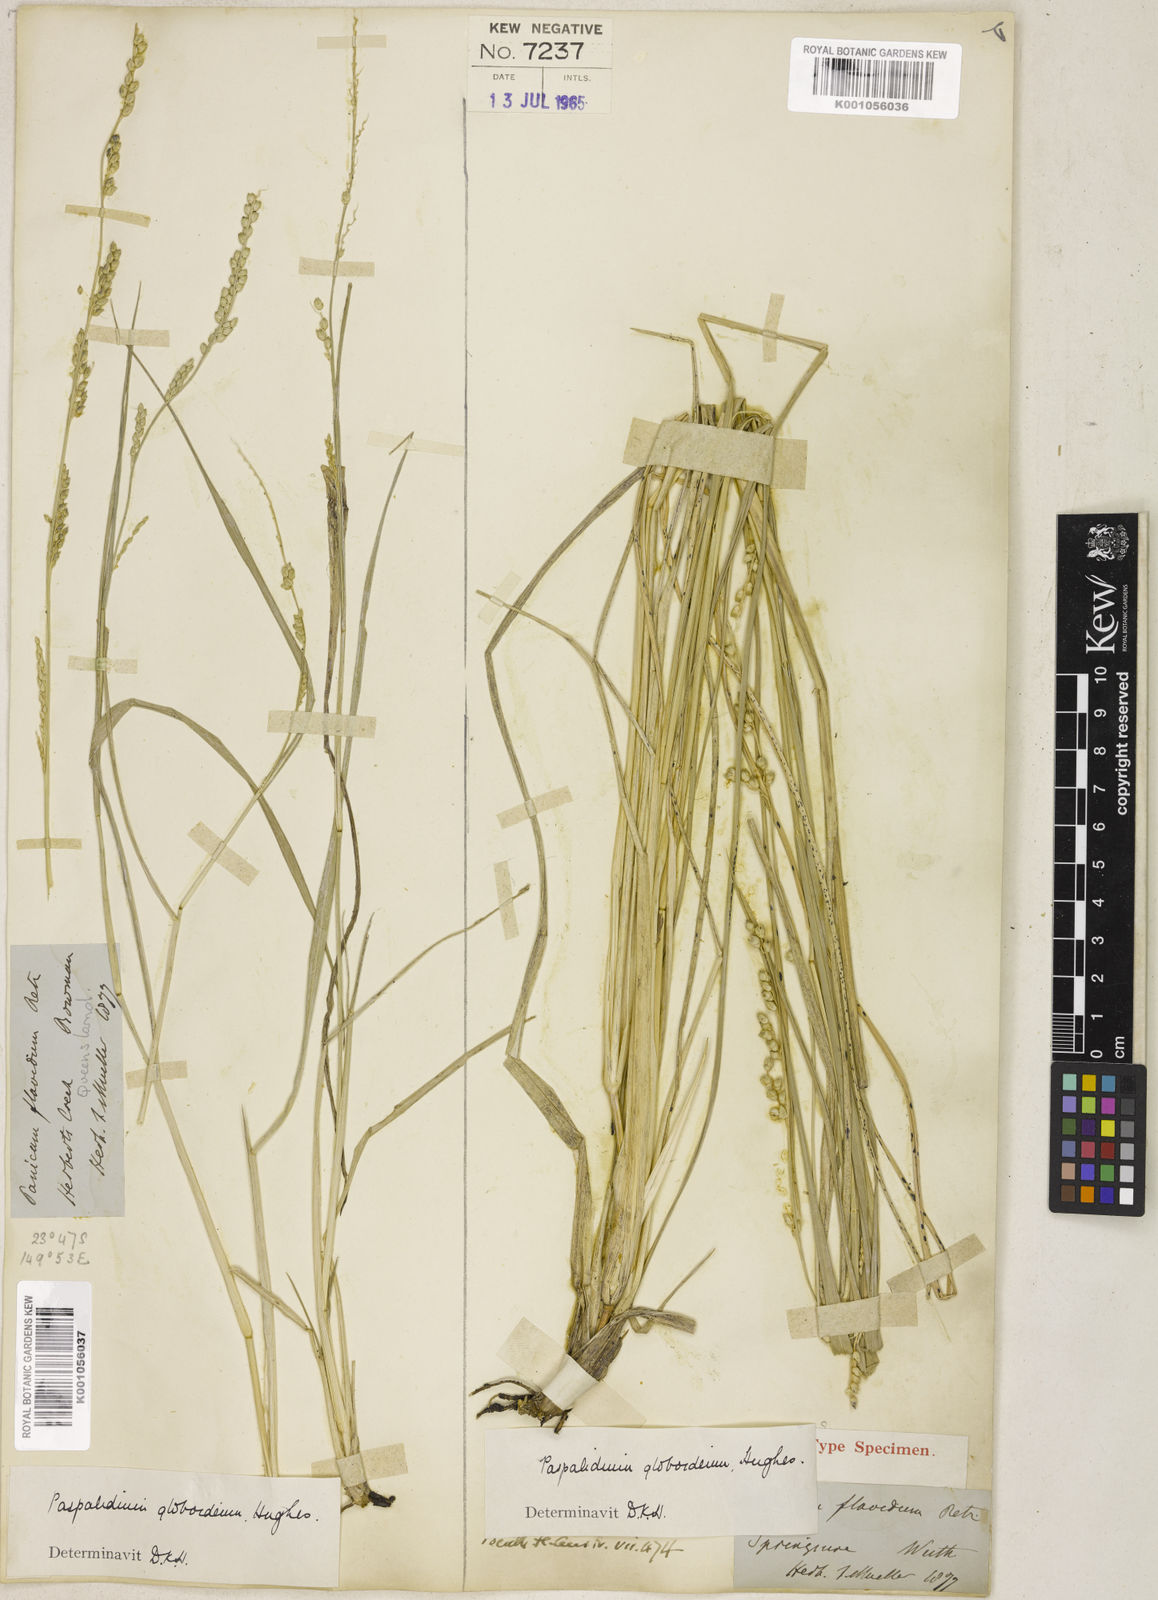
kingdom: Plantae
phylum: Tracheophyta
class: Liliopsida
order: Poales
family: Poaceae
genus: Setaria
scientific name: Setaria globoidea
